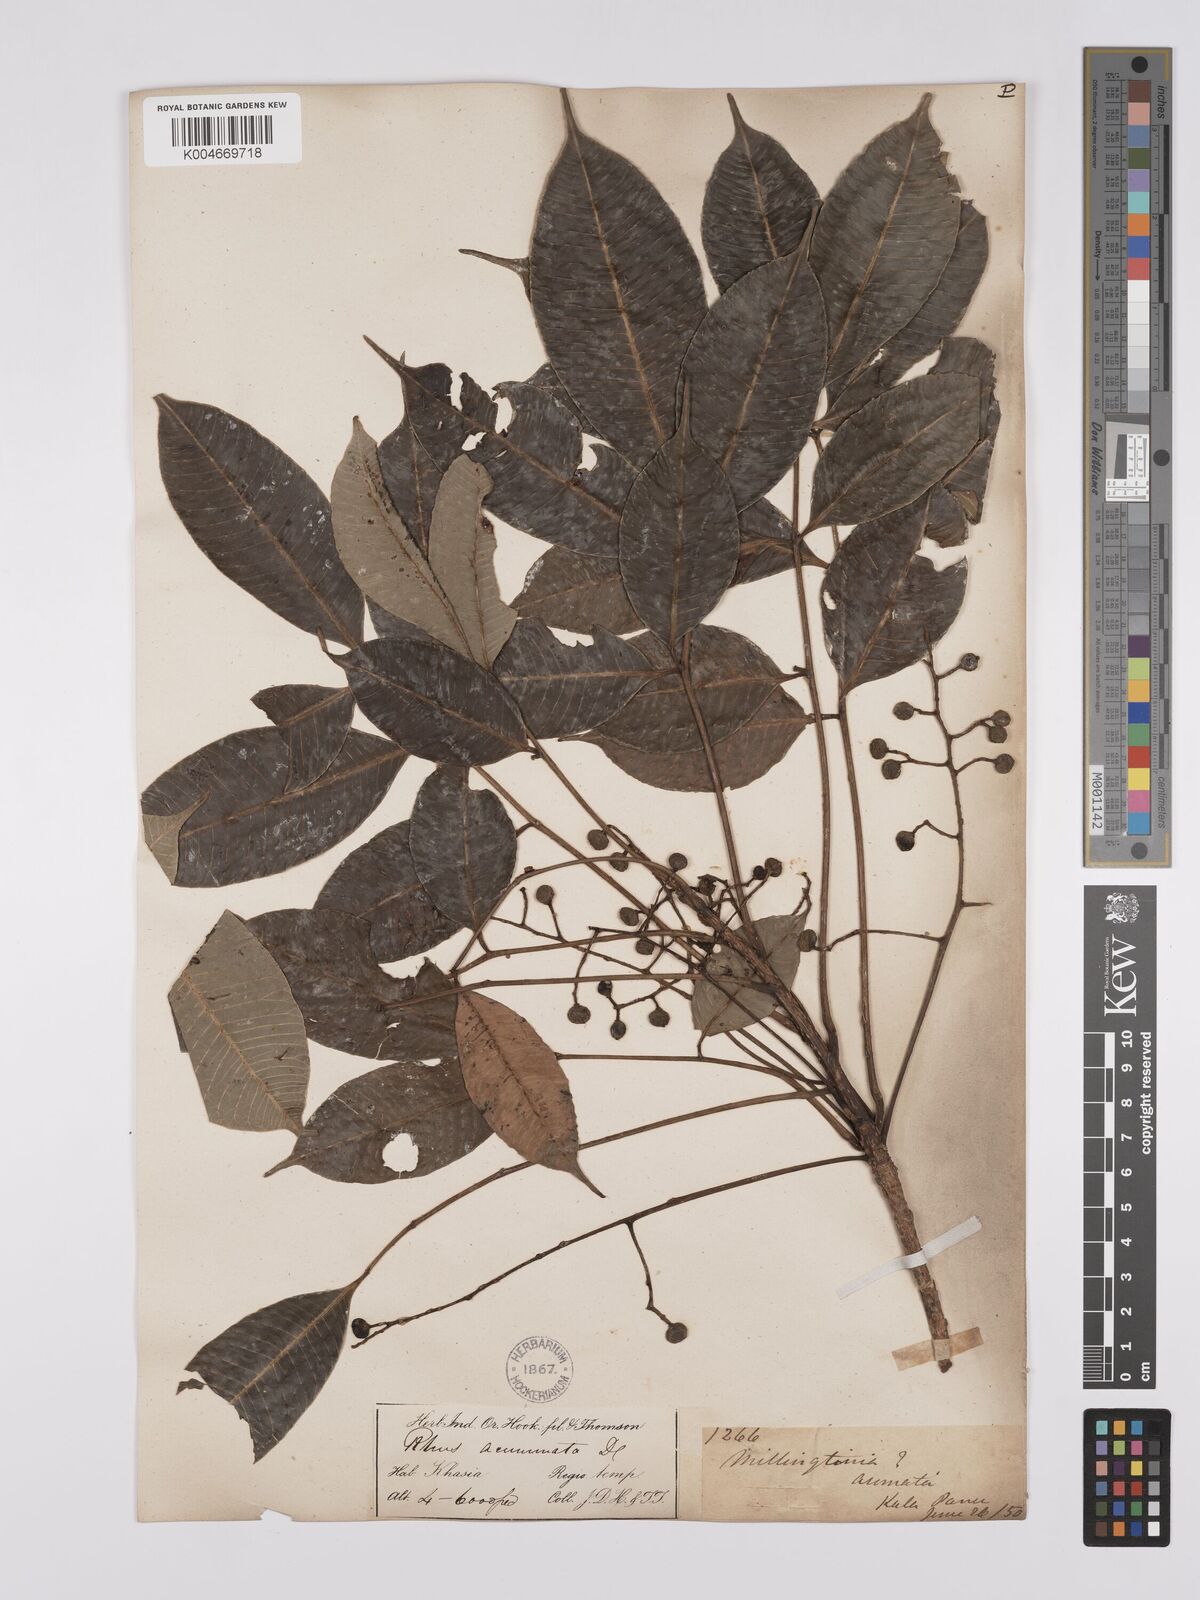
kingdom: Plantae
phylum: Tracheophyta
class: Magnoliopsida
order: Sapindales
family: Anacardiaceae
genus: Toxicodendron
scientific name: Toxicodendron succedaneum
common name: Wax tree
